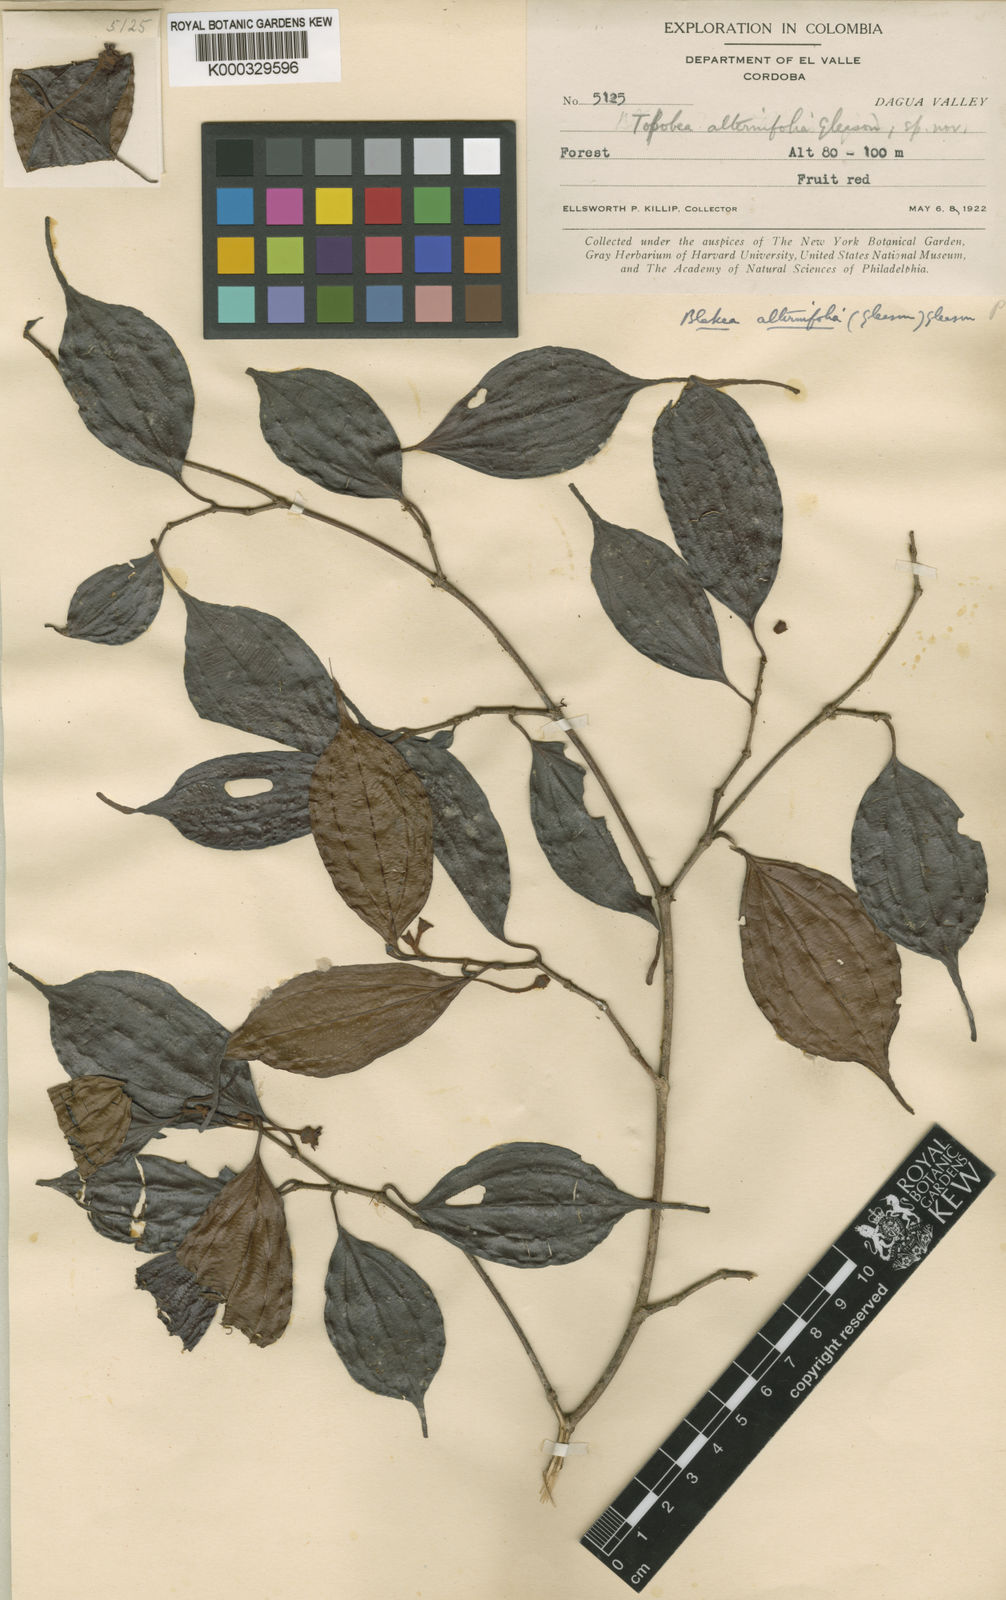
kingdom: Plantae
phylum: Tracheophyta
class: Magnoliopsida
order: Myrtales
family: Melastomataceae
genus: Blakea
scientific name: Blakea alternifolia
